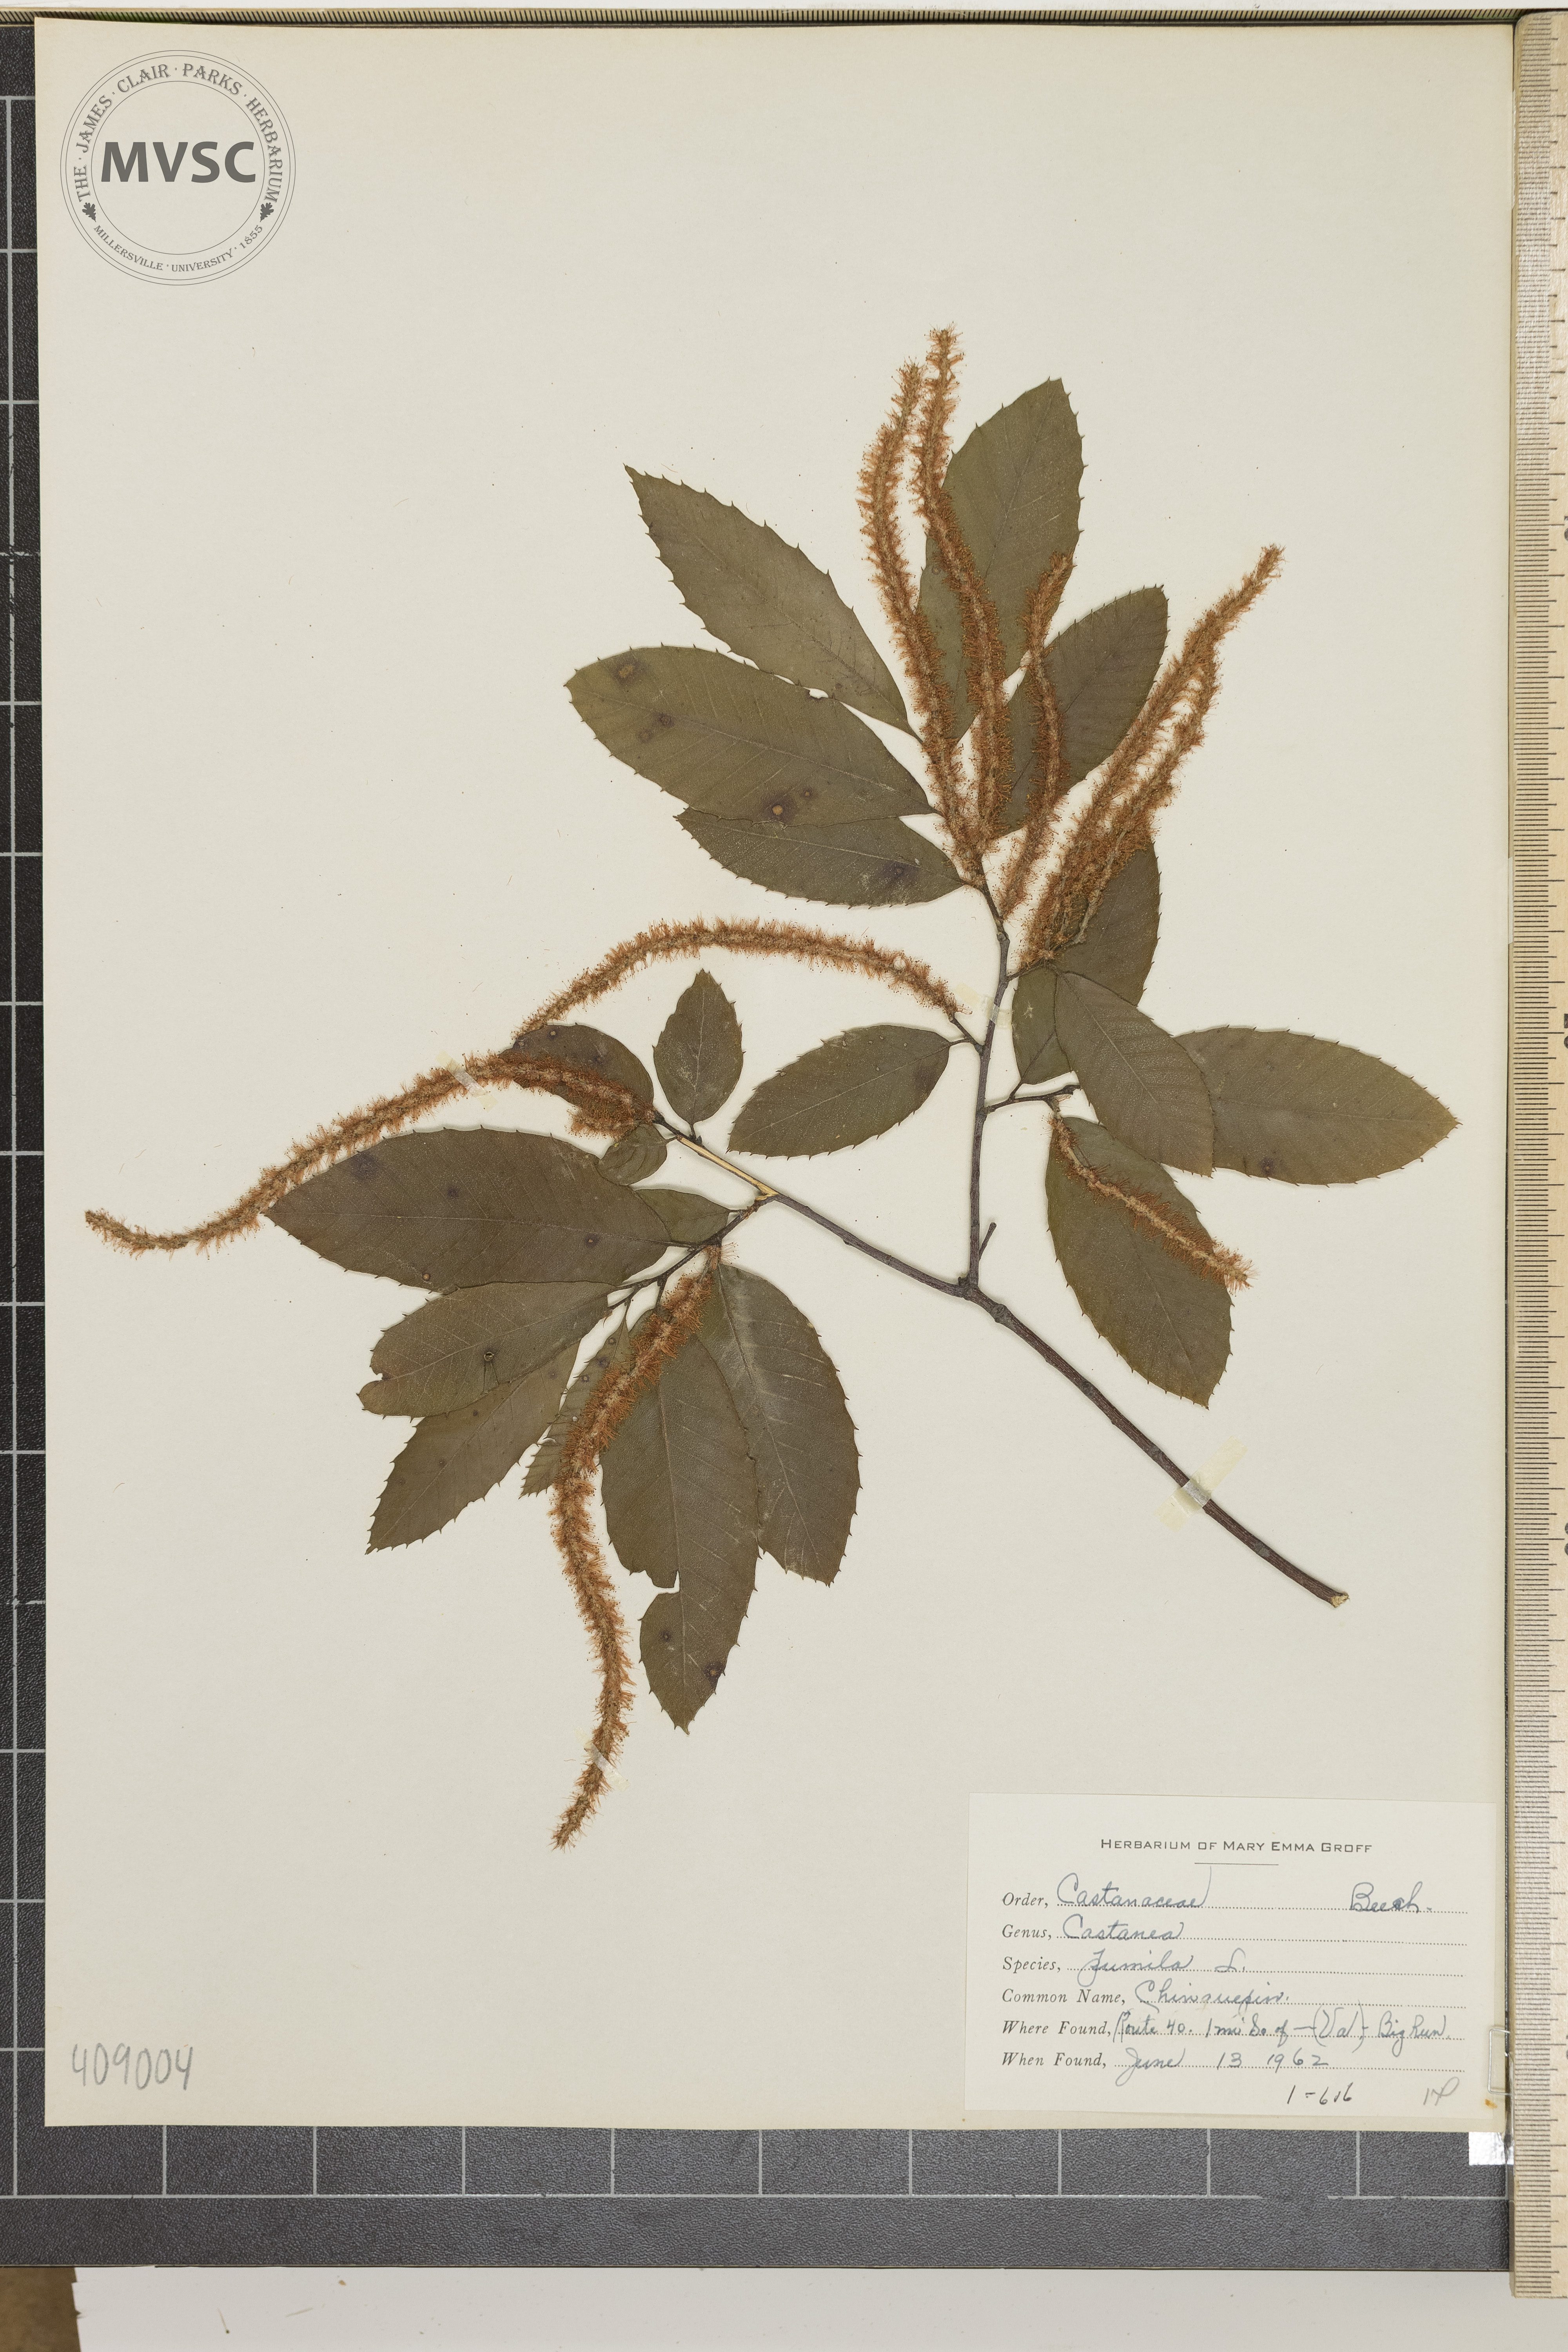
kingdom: Plantae
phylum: Tracheophyta
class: Magnoliopsida
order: Fagales
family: Fagaceae
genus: Castanea
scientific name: Castanea pumila
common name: Chinquapin
